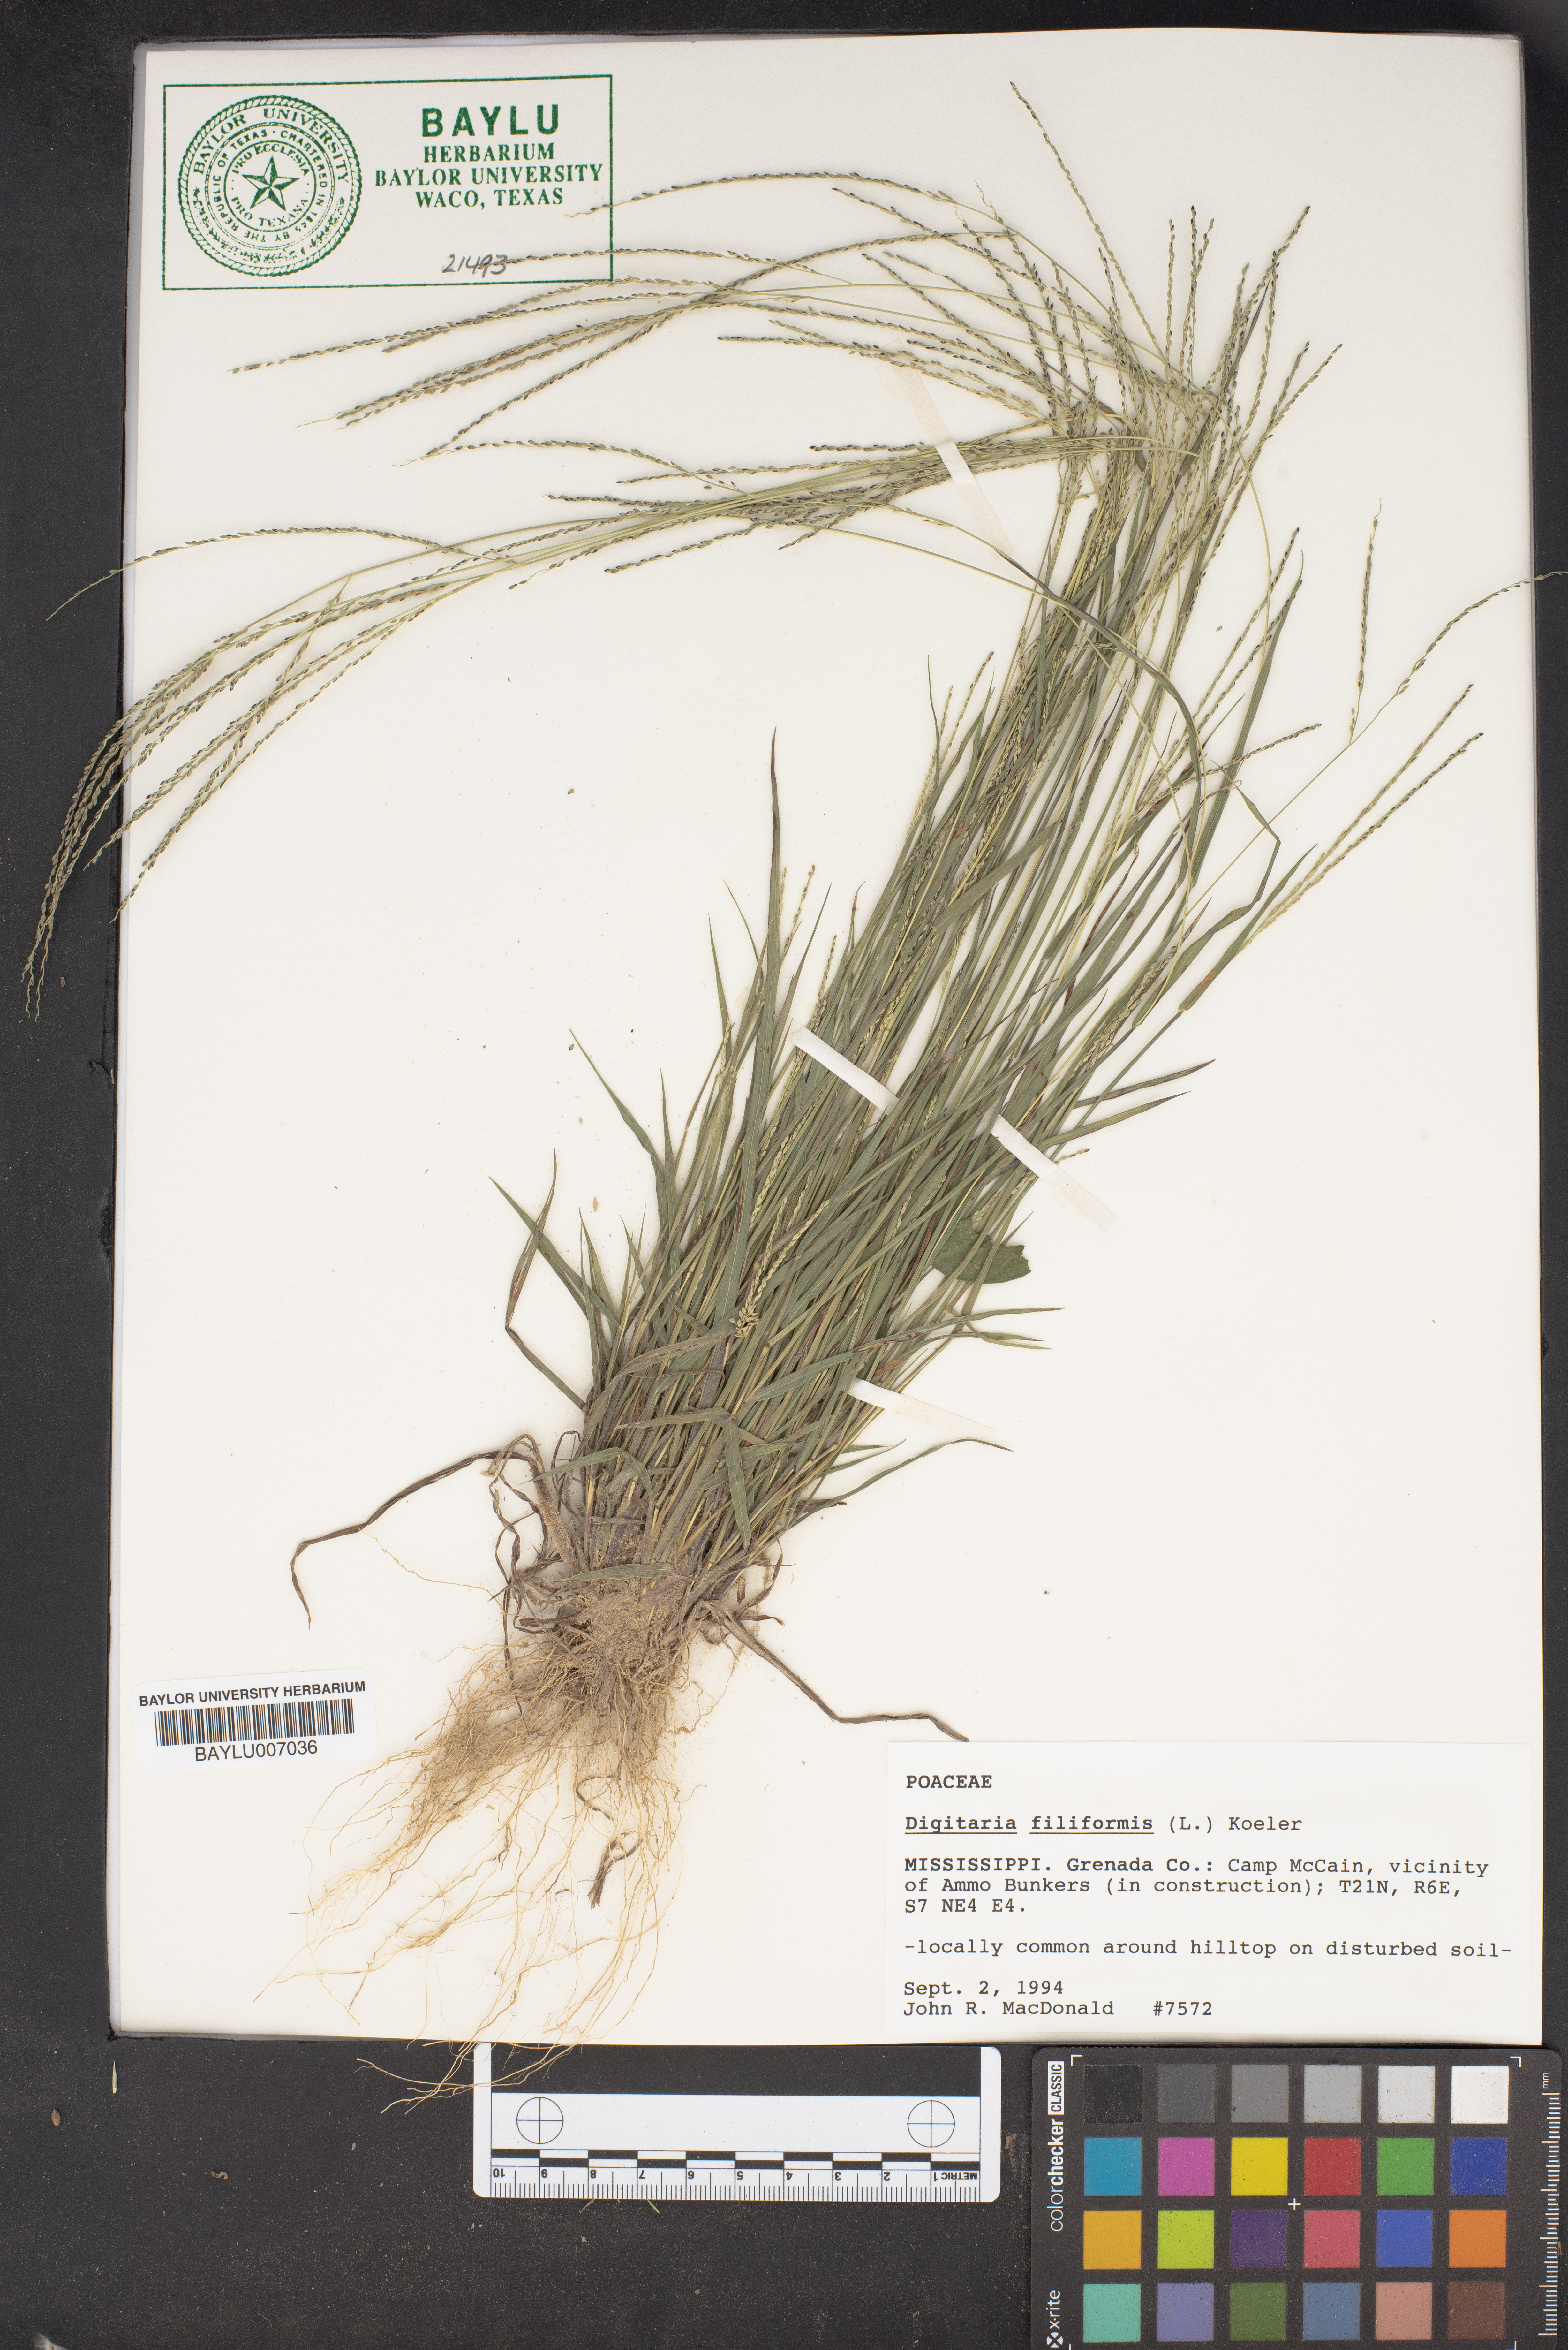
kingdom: Plantae
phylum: Tracheophyta
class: Liliopsida
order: Poales
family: Poaceae
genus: Digitaria
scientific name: Digitaria filiformis
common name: Slender crabgrass
